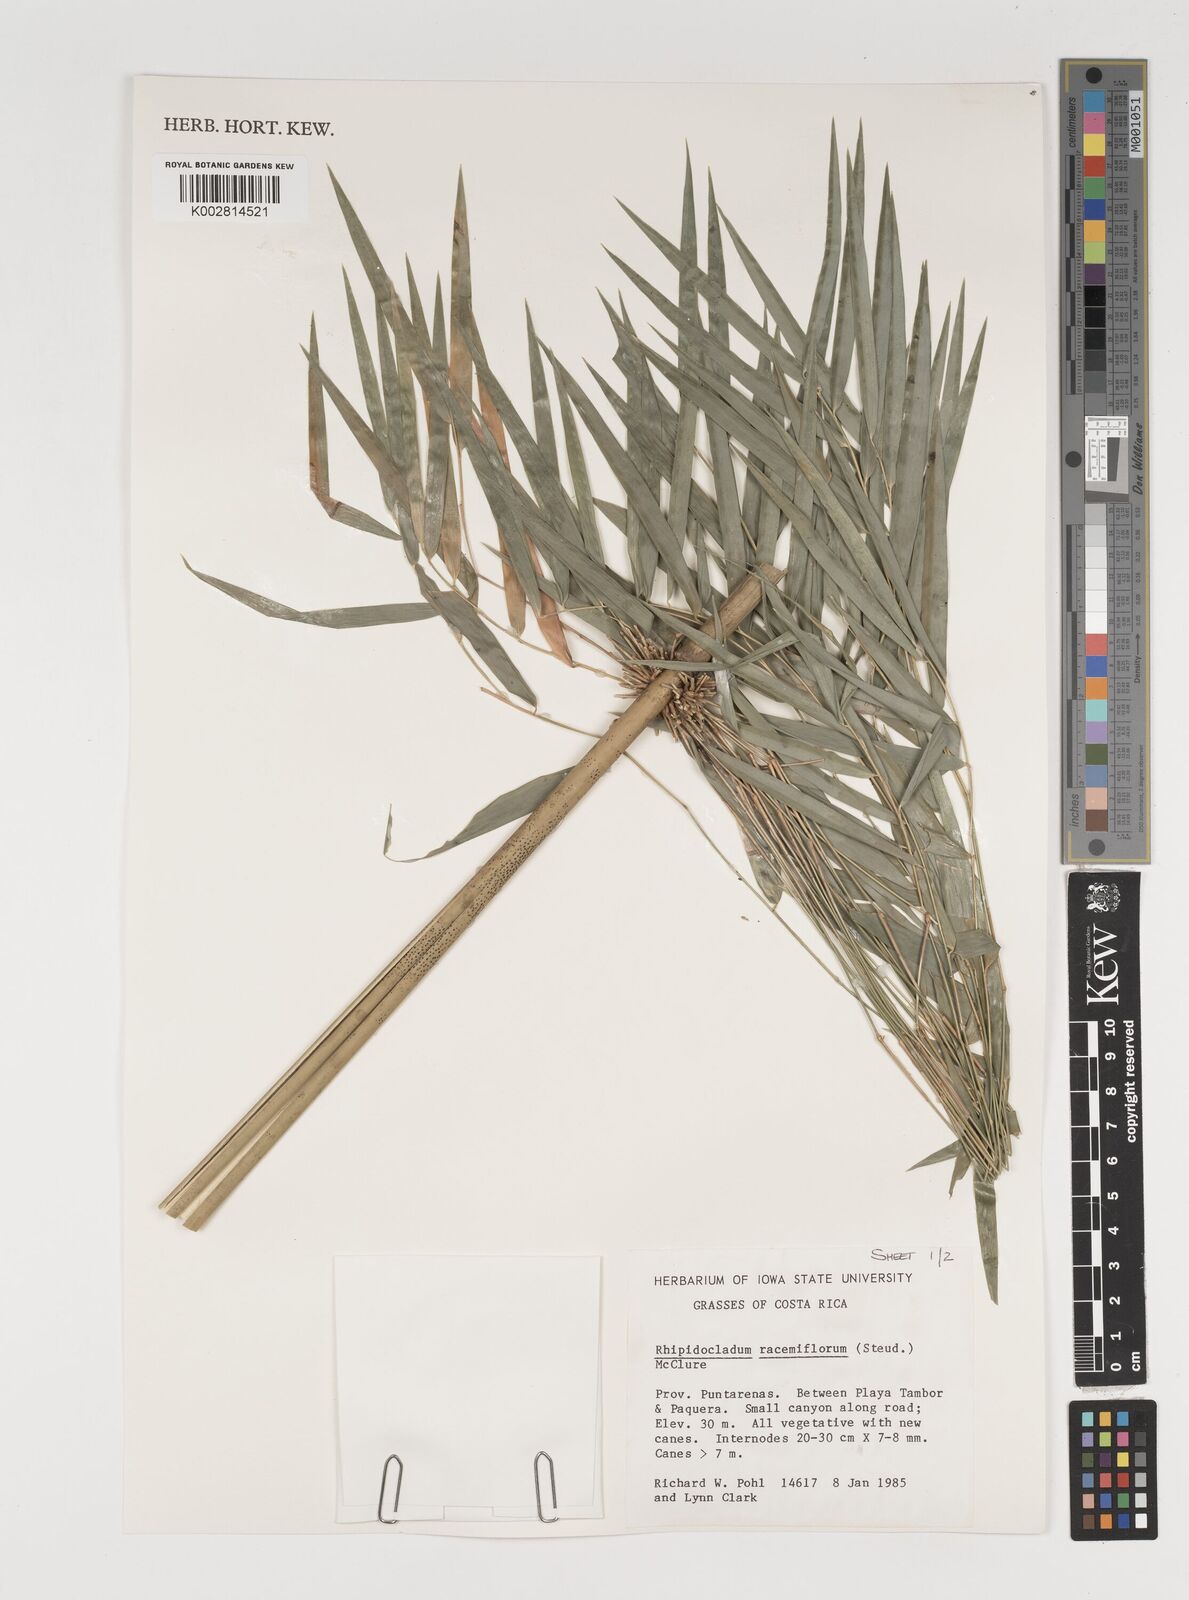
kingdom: Plantae
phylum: Tracheophyta
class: Liliopsida
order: Poales
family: Poaceae
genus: Rhipidocladum
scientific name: Rhipidocladum racemiflorum
